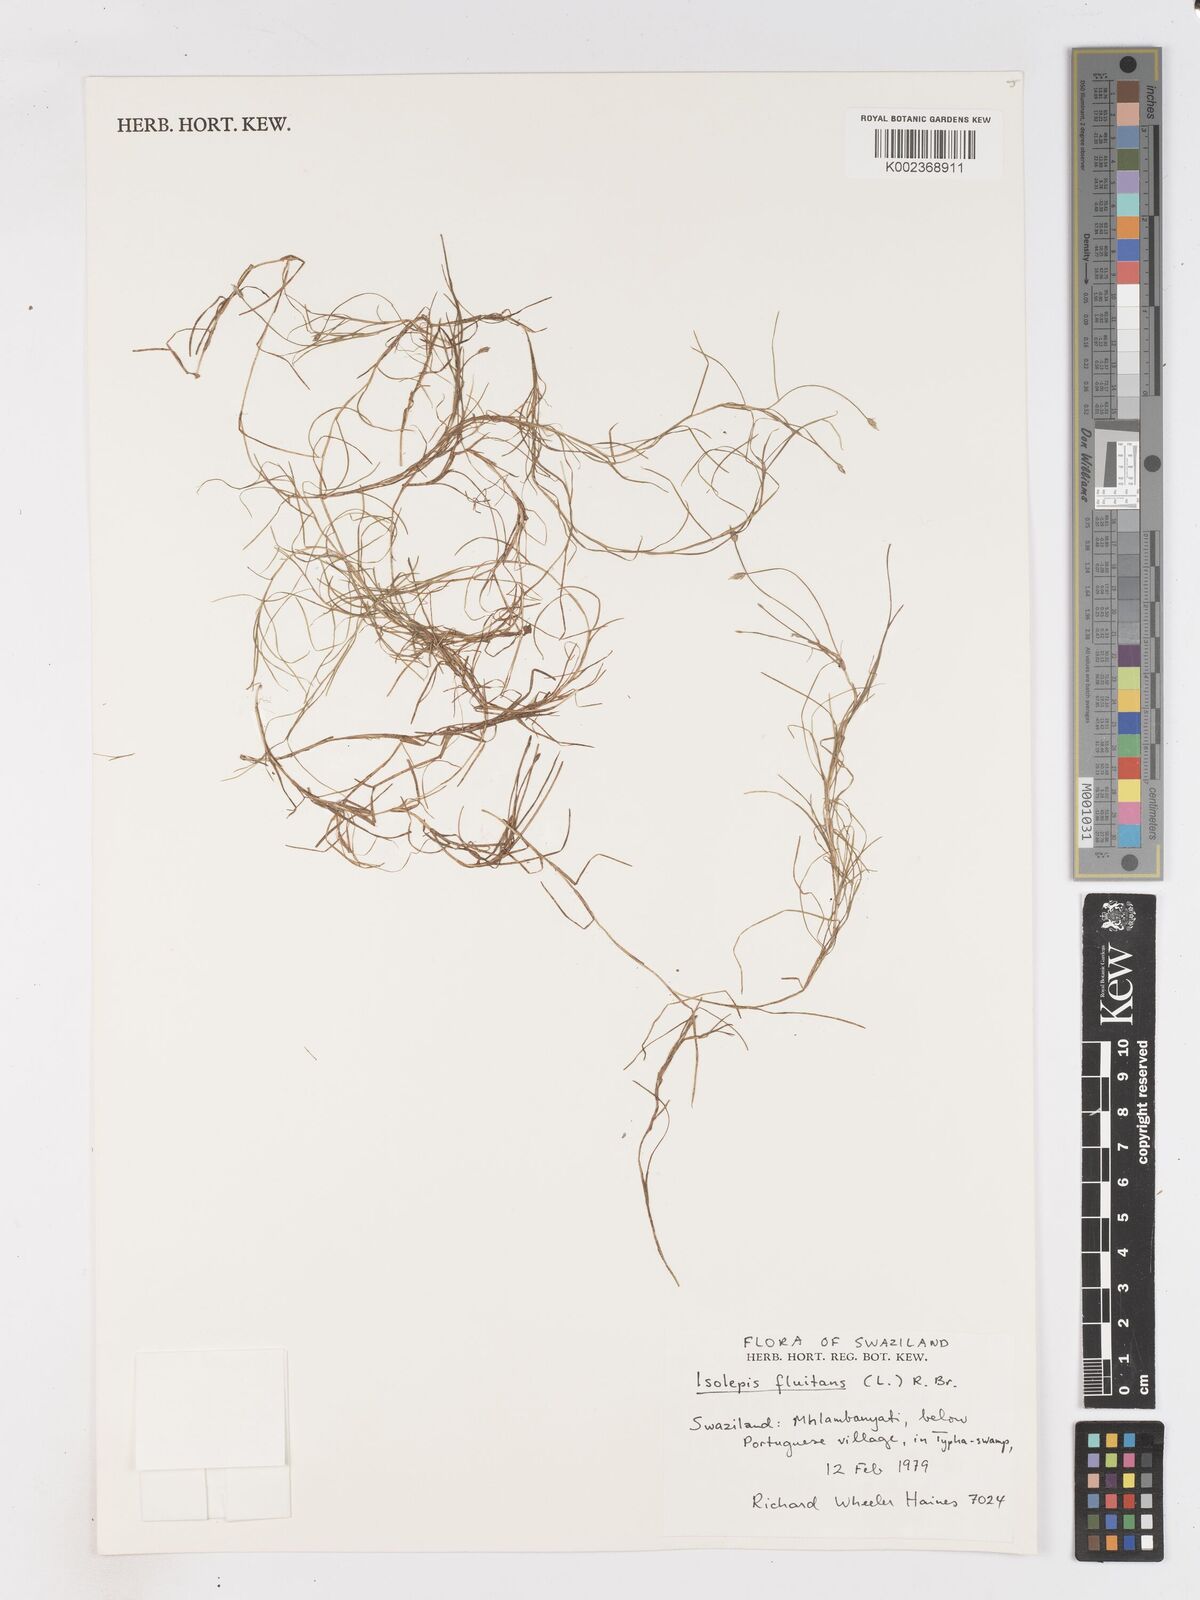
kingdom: Plantae
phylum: Tracheophyta
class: Liliopsida
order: Poales
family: Cyperaceae
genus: Isolepis
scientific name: Isolepis
